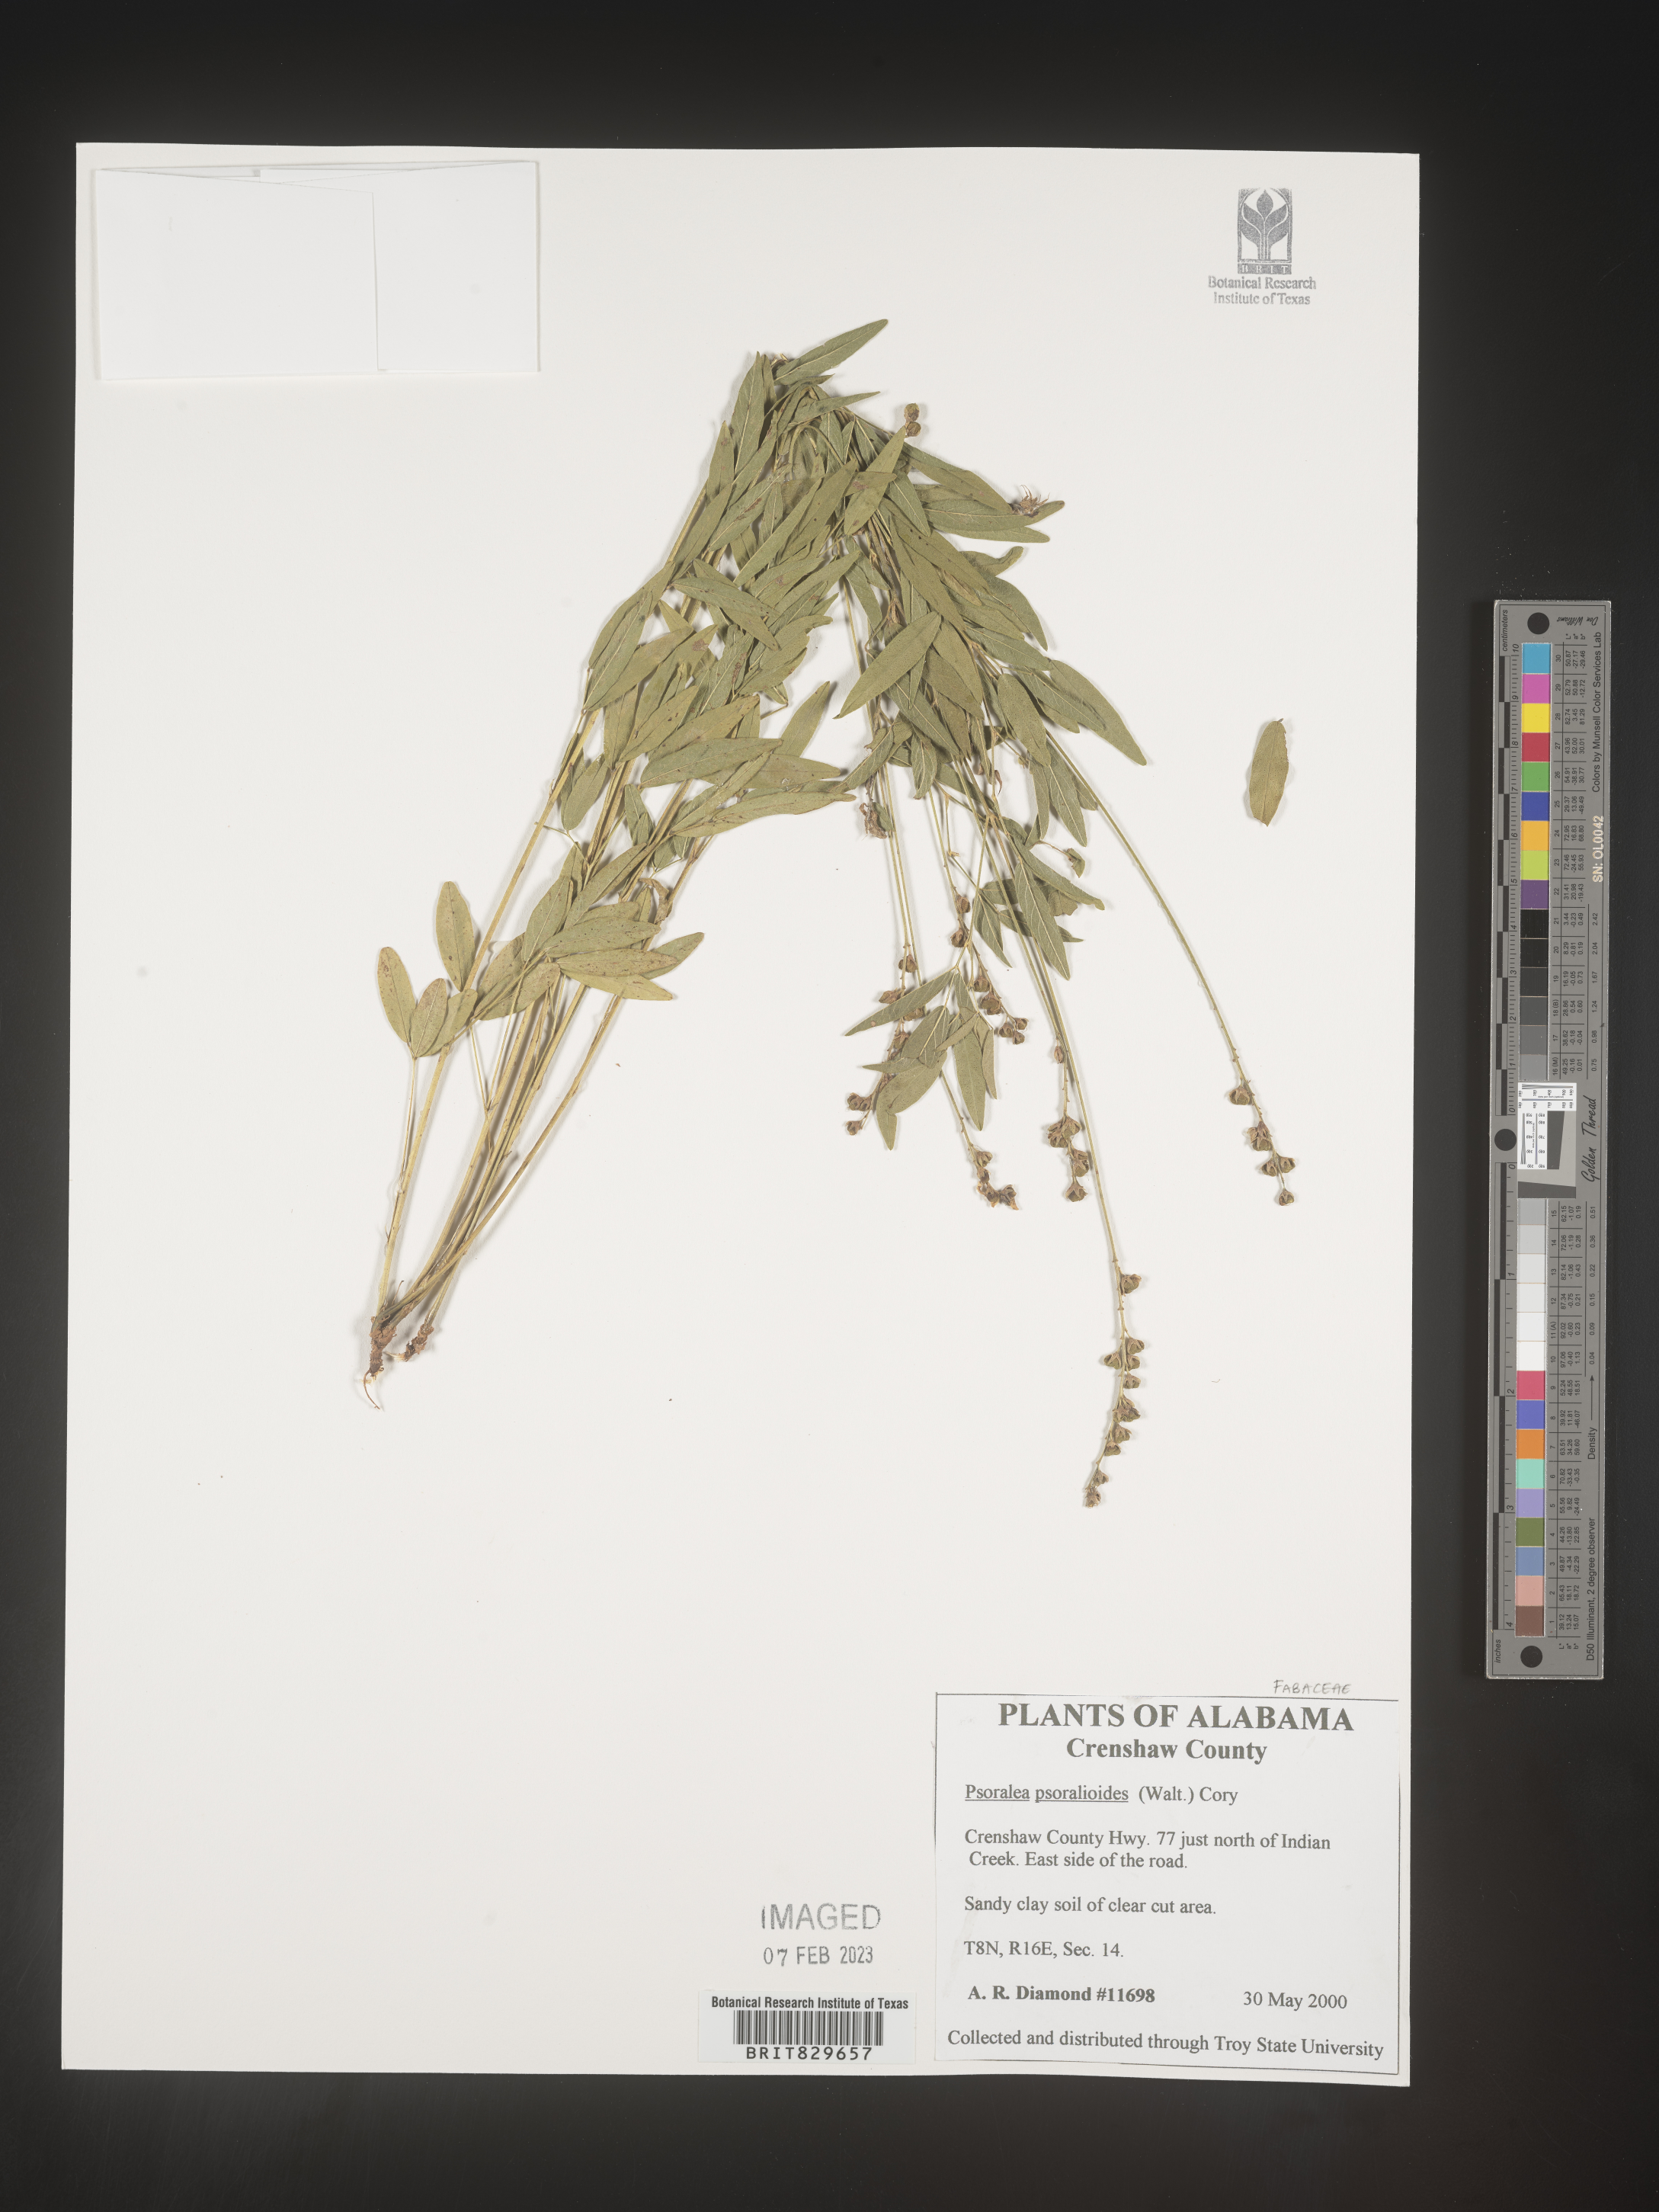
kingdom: Plantae
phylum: Tracheophyta
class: Magnoliopsida
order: Fabales
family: Fabaceae
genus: Orbexilum
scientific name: Orbexilum psoralioides
